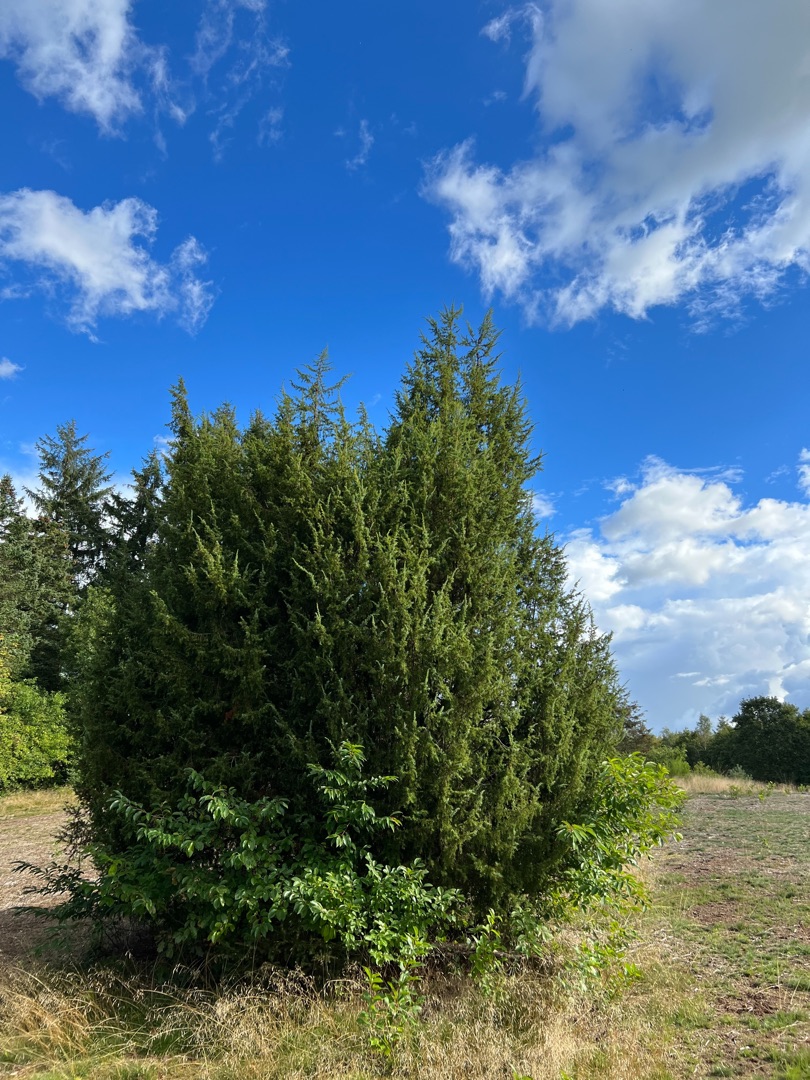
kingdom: Plantae
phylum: Tracheophyta
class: Pinopsida
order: Pinales
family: Cupressaceae
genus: Juniperus
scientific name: Juniperus communis
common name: Almindelig ene
